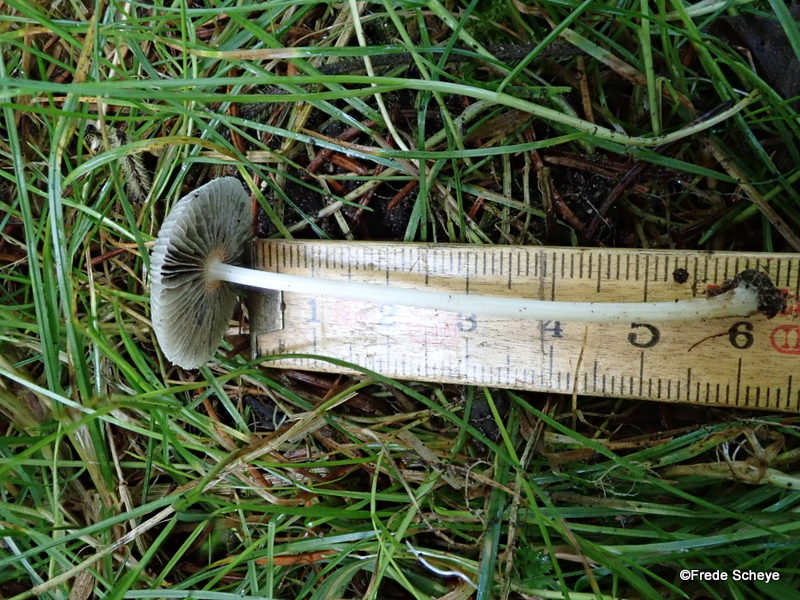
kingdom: Fungi
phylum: Basidiomycota
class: Agaricomycetes
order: Agaricales
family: Psathyrellaceae
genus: Parasola
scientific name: Parasola lactea
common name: glat hjulhat
